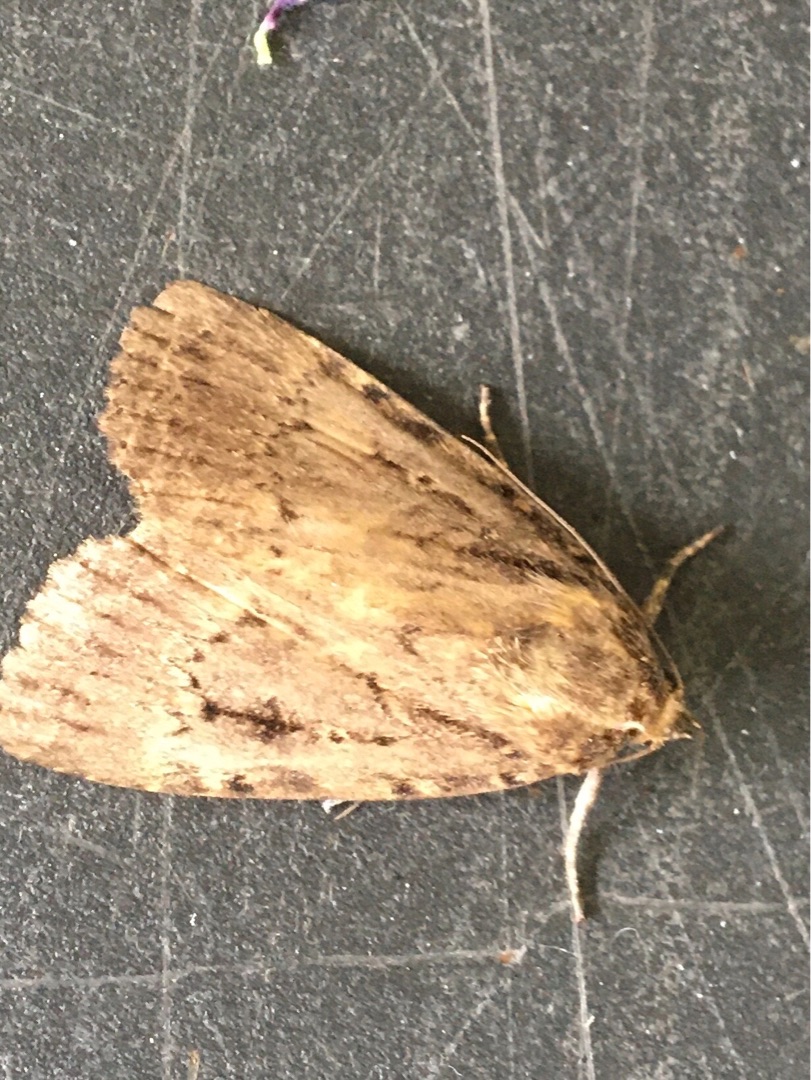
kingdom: Animalia
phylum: Arthropoda
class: Insecta
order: Lepidoptera
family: Noctuidae
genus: Amphipyra
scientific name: Amphipyra pyramidea
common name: Pyramideugle
